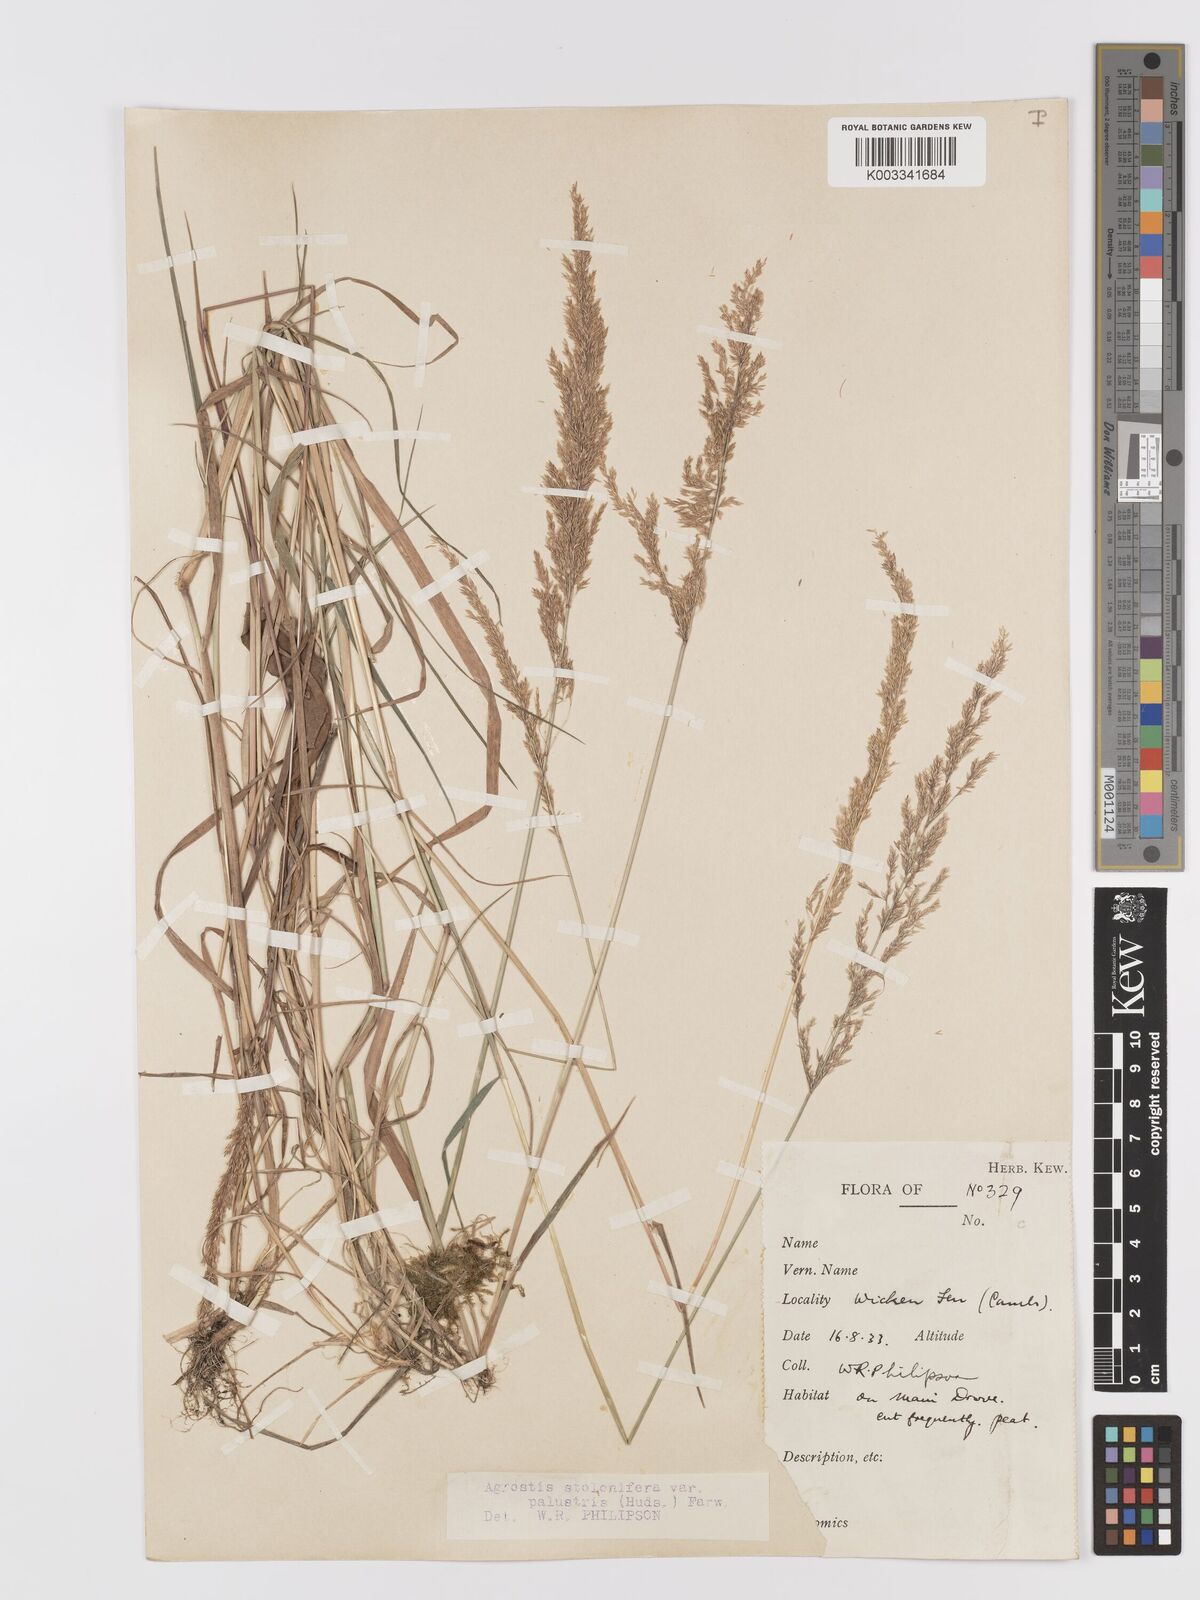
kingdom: Plantae
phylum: Tracheophyta
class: Liliopsida
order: Poales
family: Poaceae
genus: Agrostis
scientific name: Agrostis stolonifera
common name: Creeping bentgrass
